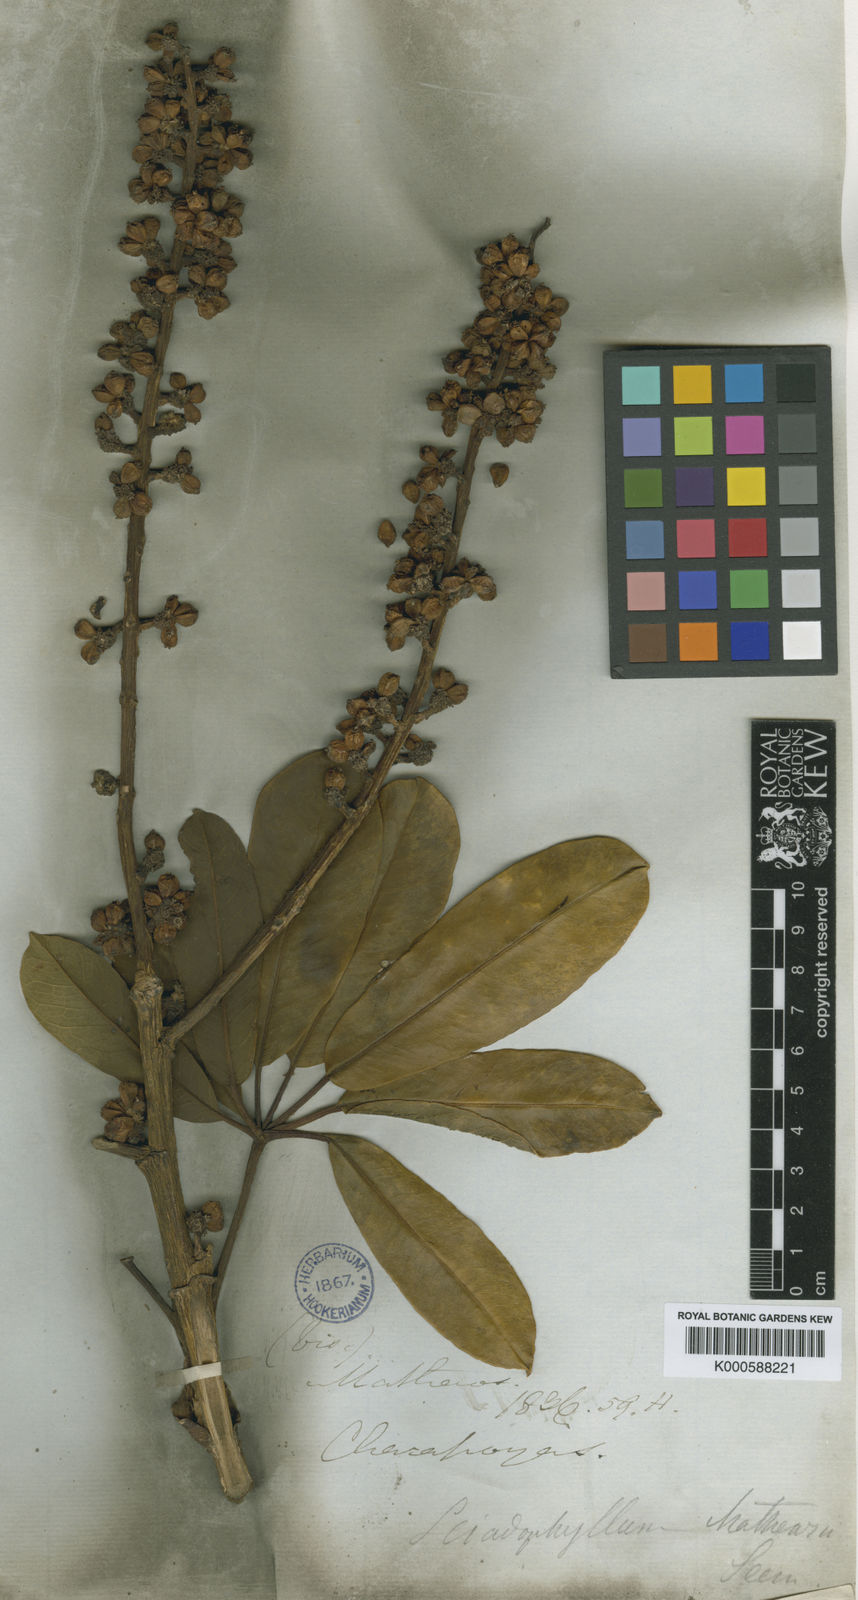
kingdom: Plantae
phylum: Tracheophyta
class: Magnoliopsida
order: Apiales
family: Araliaceae
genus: Sciodaphyllum
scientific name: Sciodaphyllum matthewsii
